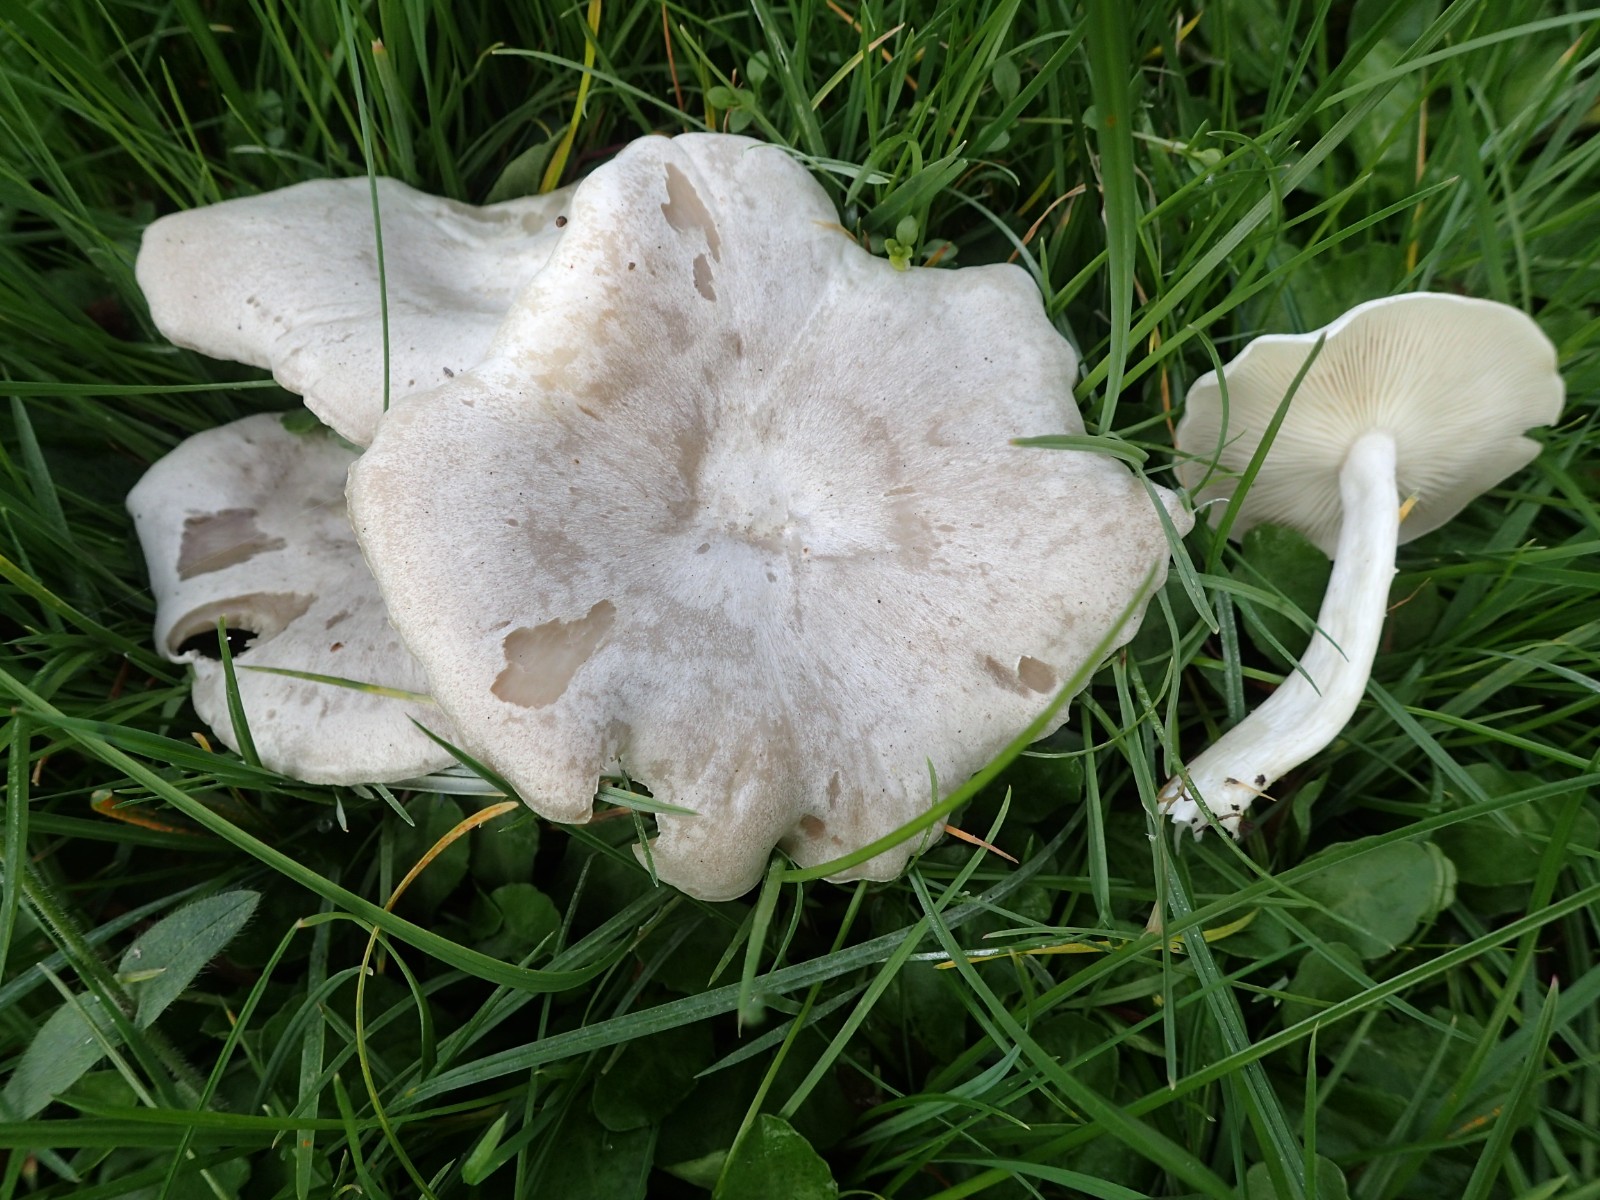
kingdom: Fungi
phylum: Basidiomycota
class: Agaricomycetes
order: Agaricales
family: Tricholomataceae
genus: Clitocybe
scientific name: Clitocybe rivulosa
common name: eng-tragthat
